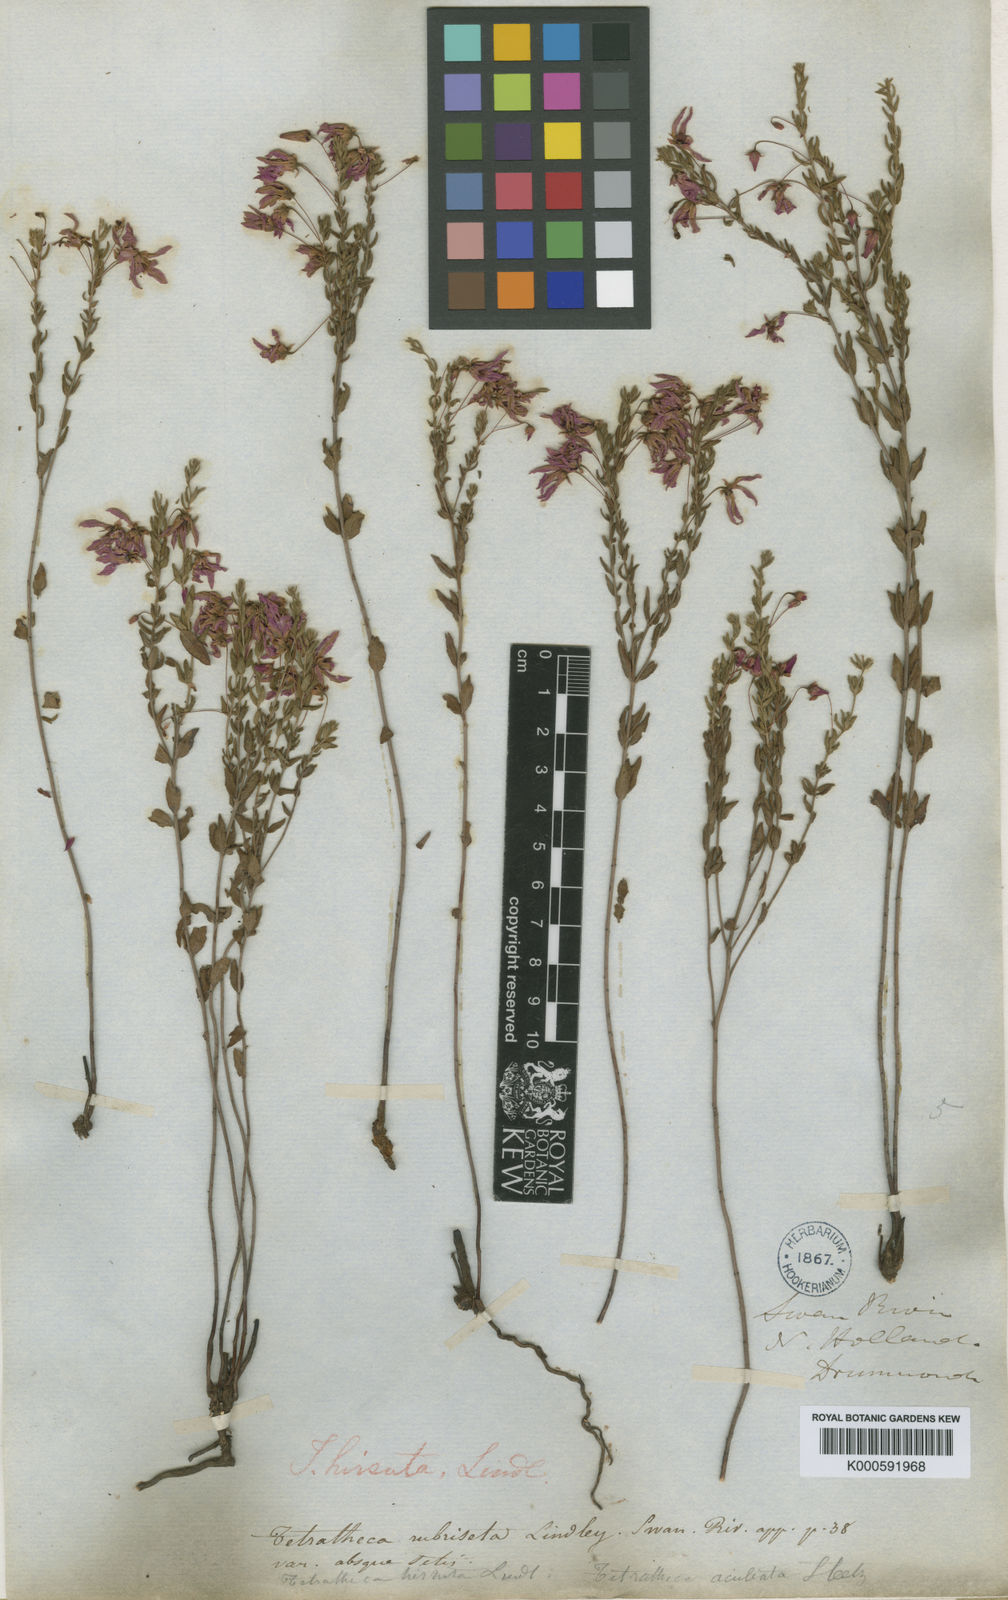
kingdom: Plantae
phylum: Tracheophyta
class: Magnoliopsida
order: Oxalidales
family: Elaeocarpaceae
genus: Tetratheca
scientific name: Tetratheca hirsuta
